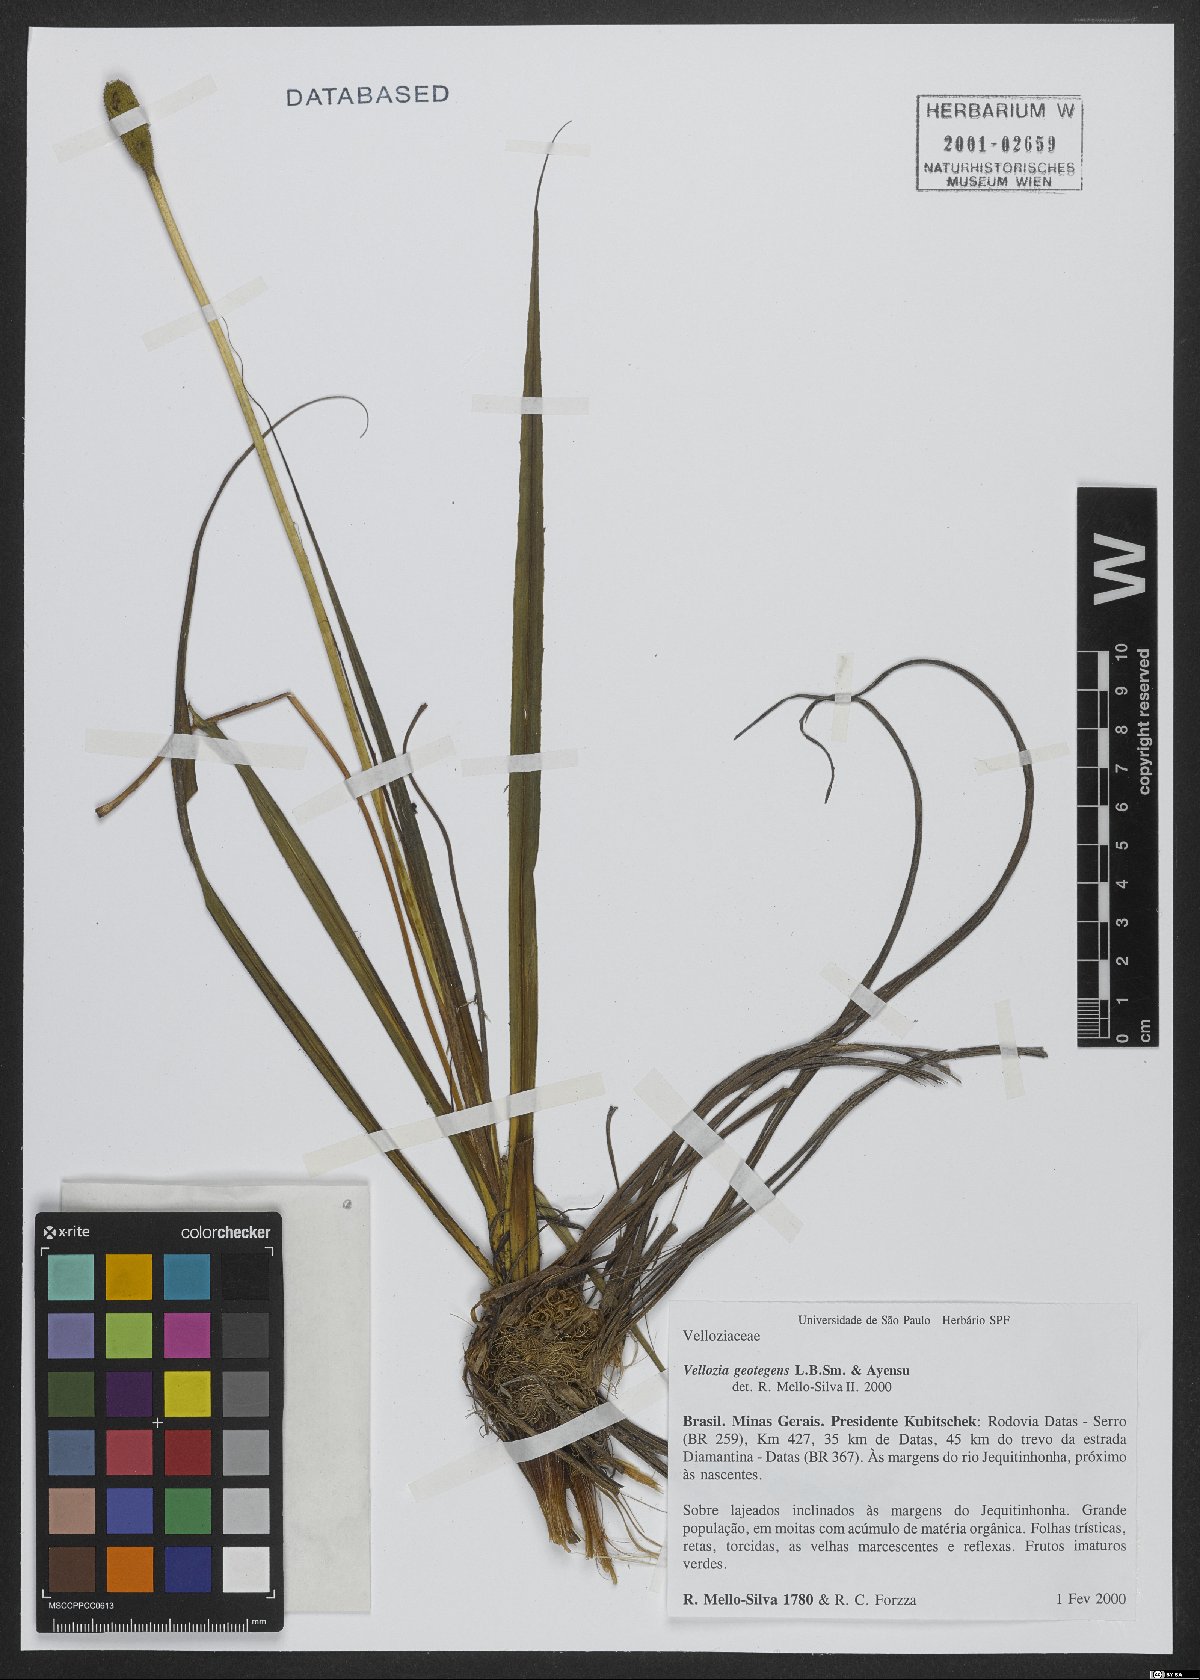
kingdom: Plantae
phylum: Tracheophyta
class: Liliopsida
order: Pandanales
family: Velloziaceae
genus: Vellozia
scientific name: Vellozia geotegens
